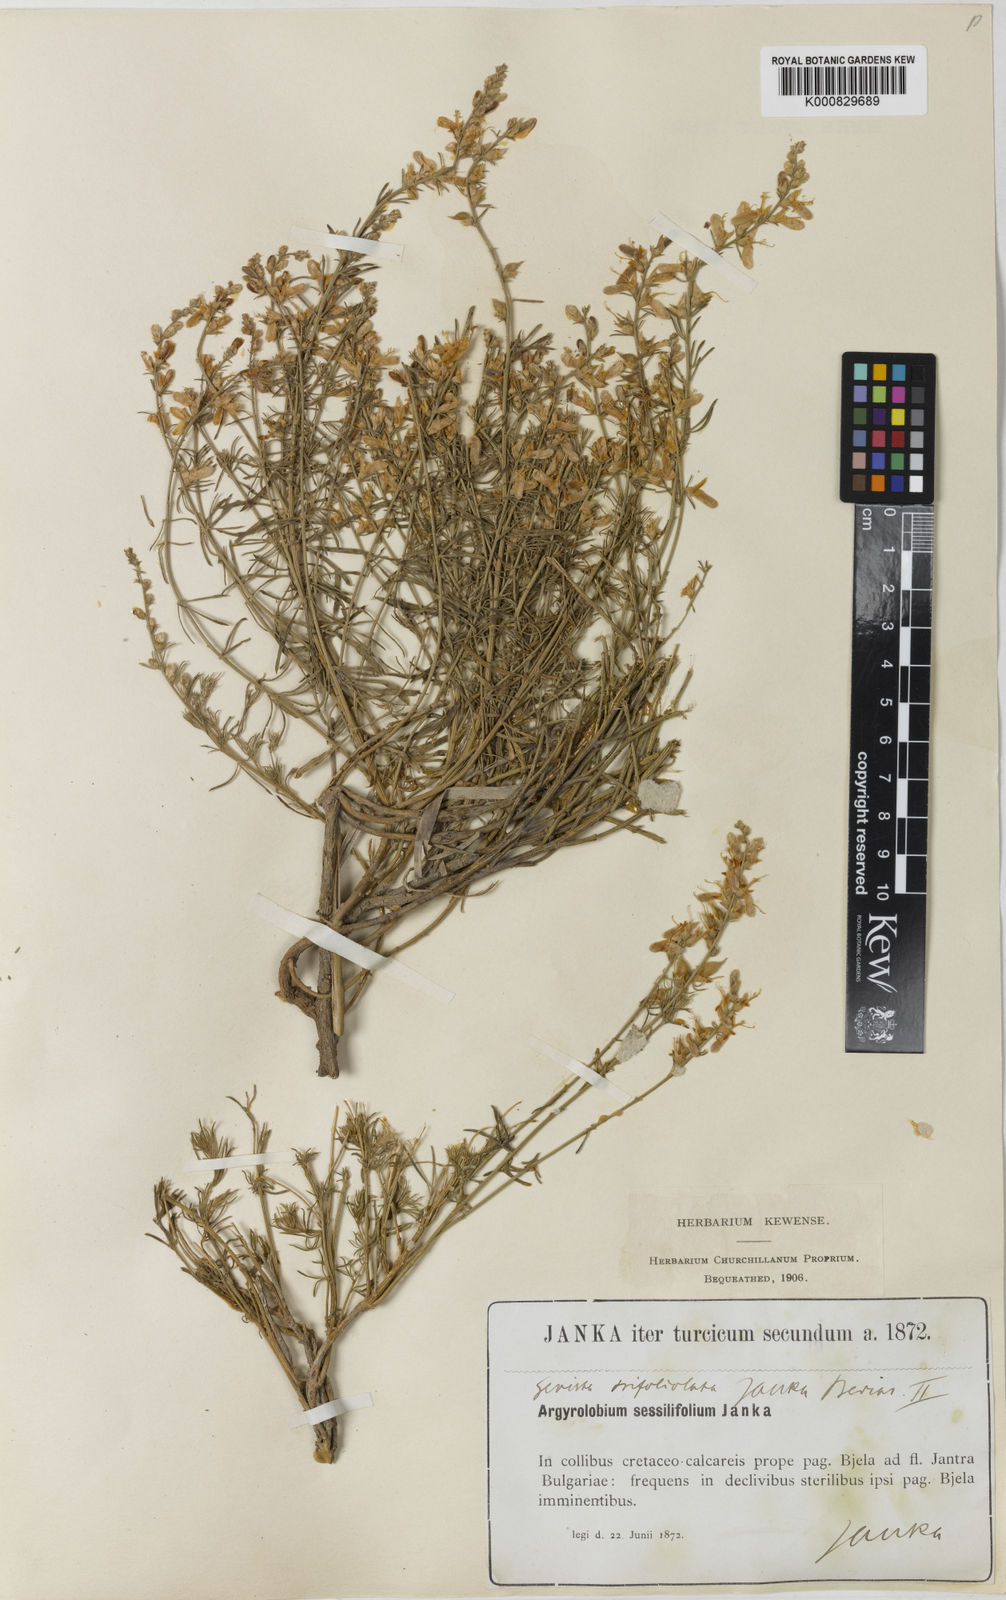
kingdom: Plantae
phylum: Tracheophyta
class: Magnoliopsida
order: Fabales
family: Fabaceae
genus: Genista
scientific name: Genista sessilifolia
